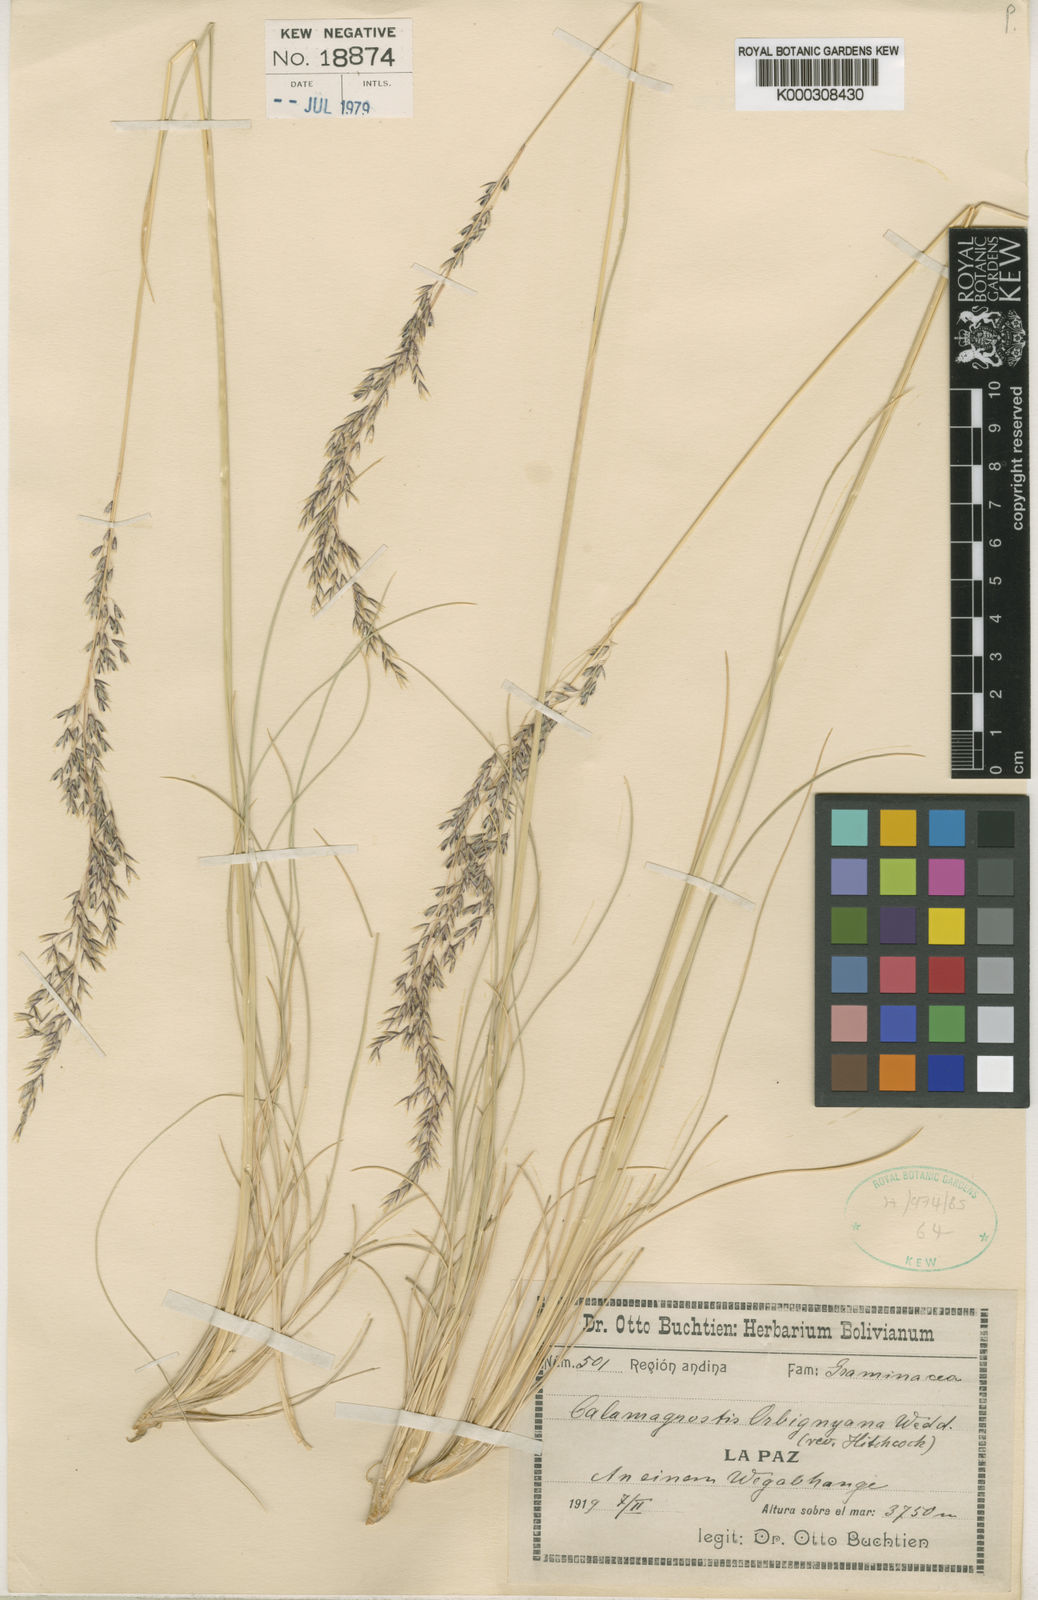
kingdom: Plantae
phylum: Tracheophyta
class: Liliopsida
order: Poales
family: Poaceae
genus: Cinnagrostis
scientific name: Cinnagrostis brevifolia
